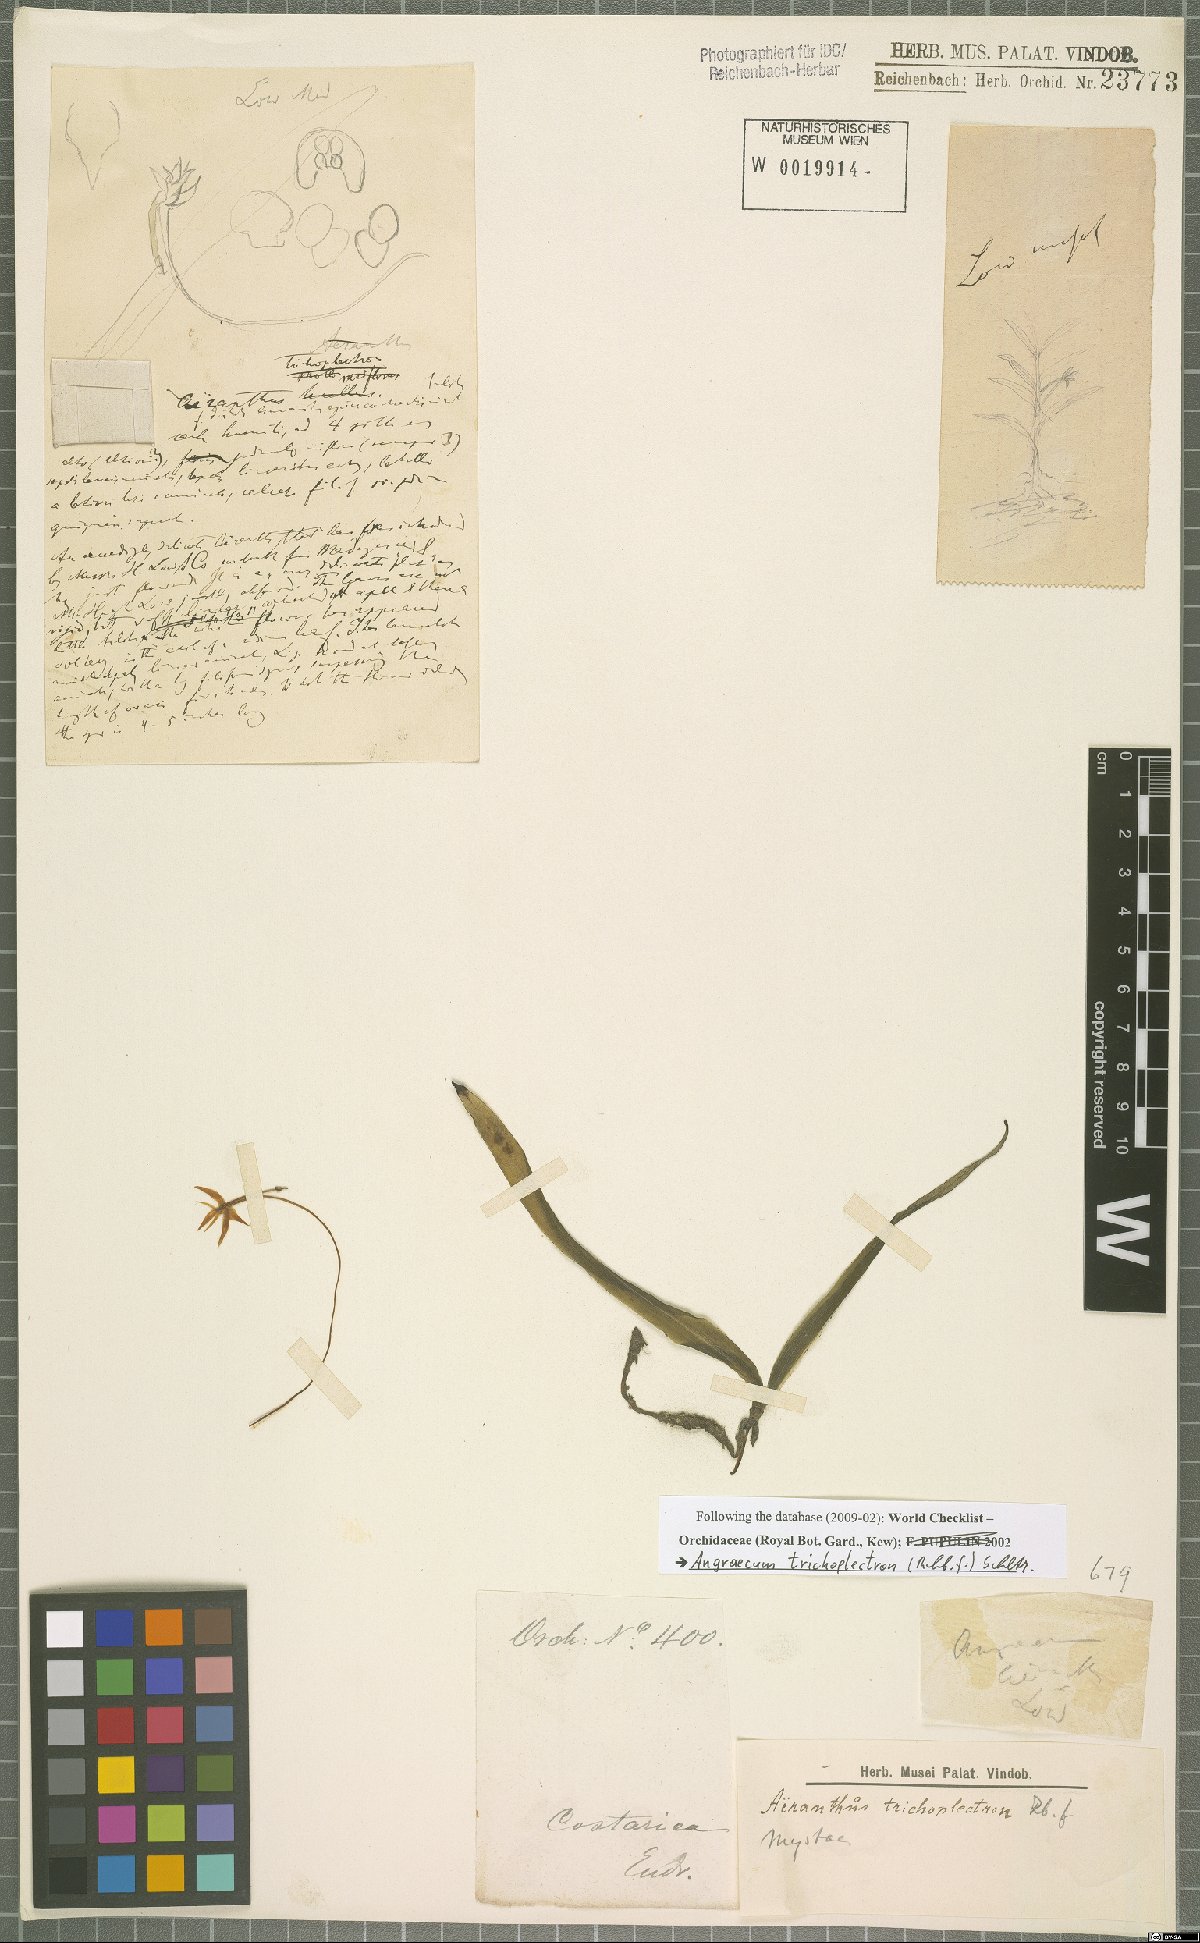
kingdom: Plantae
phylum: Tracheophyta
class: Liliopsida
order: Asparagales
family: Orchidaceae
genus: Angraecum
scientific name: Angraecum trichoplectron
